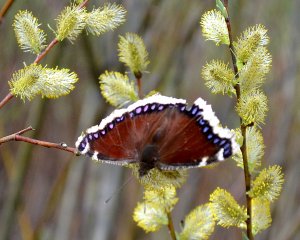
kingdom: Animalia
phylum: Arthropoda
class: Insecta
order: Lepidoptera
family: Nymphalidae
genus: Nymphalis
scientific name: Nymphalis antiopa
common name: Mourning Cloak
